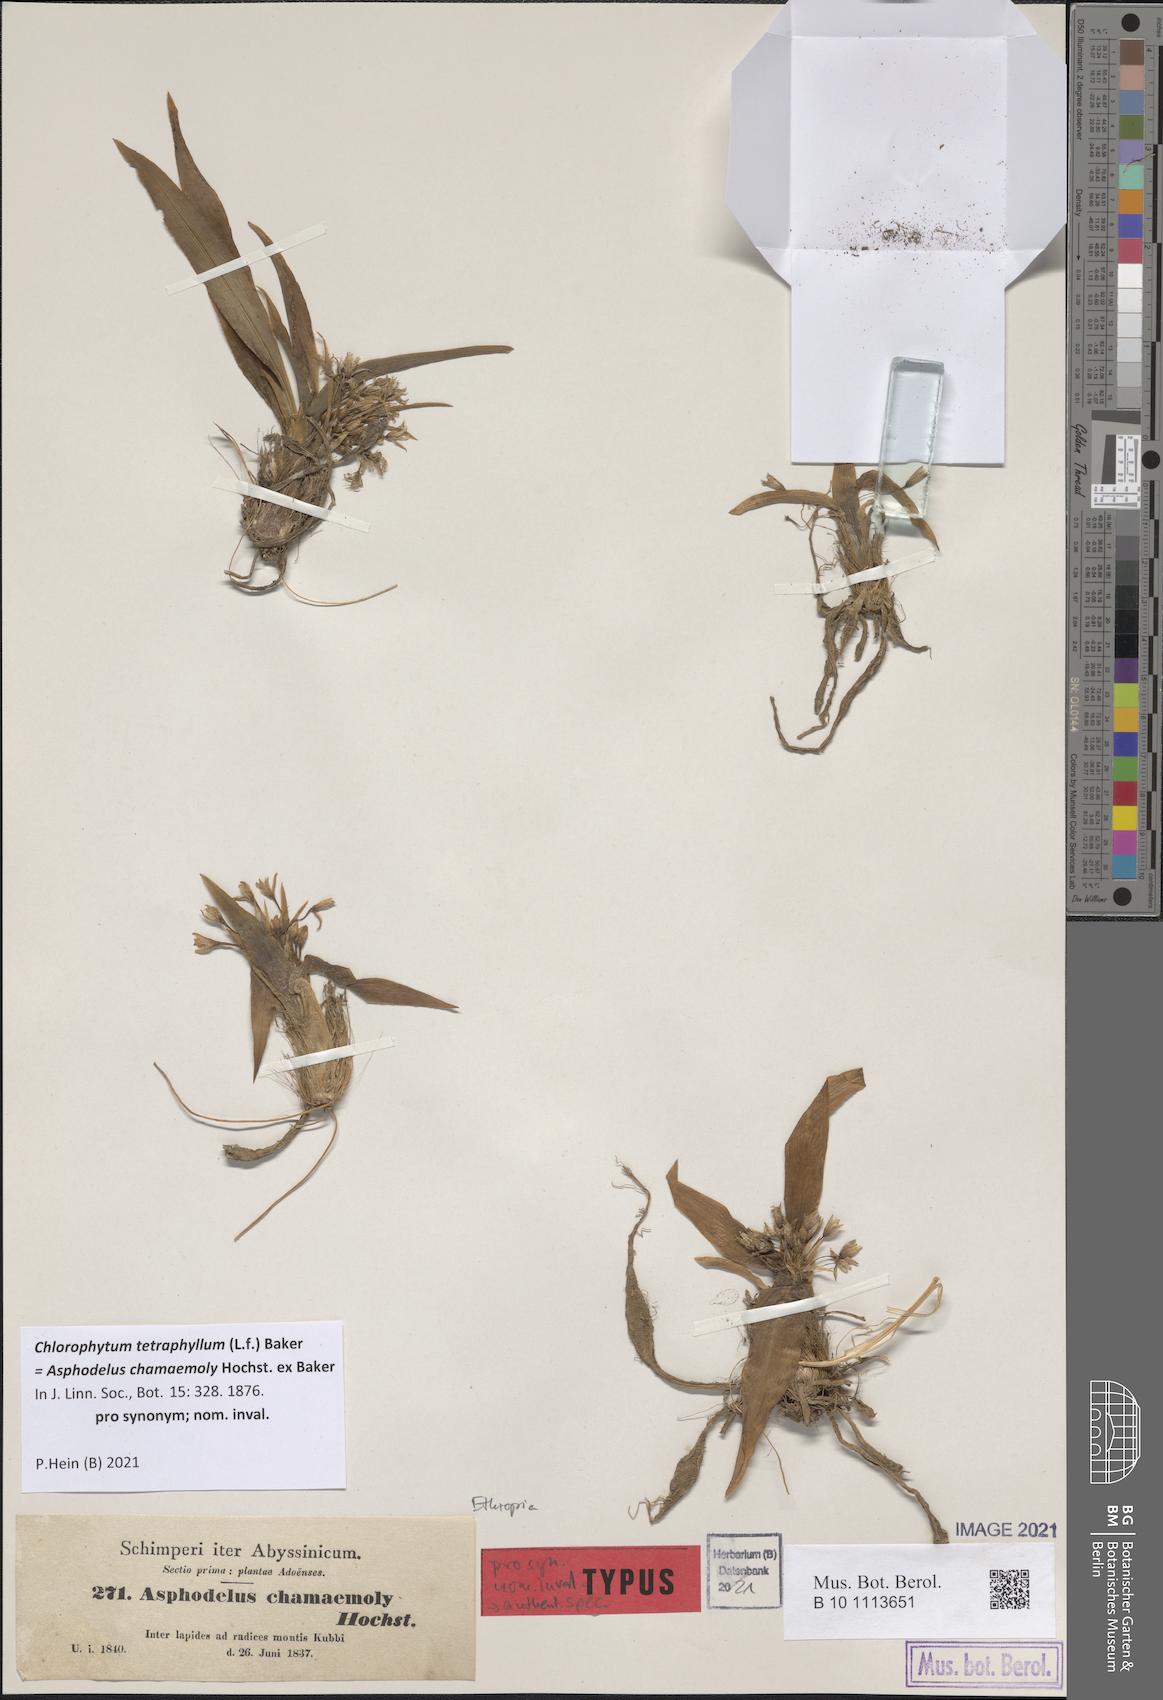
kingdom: Plantae
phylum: Tracheophyta
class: Liliopsida
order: Asparagales
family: Asparagaceae
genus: Chlorophytum
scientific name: Chlorophytum tetraphyllum
